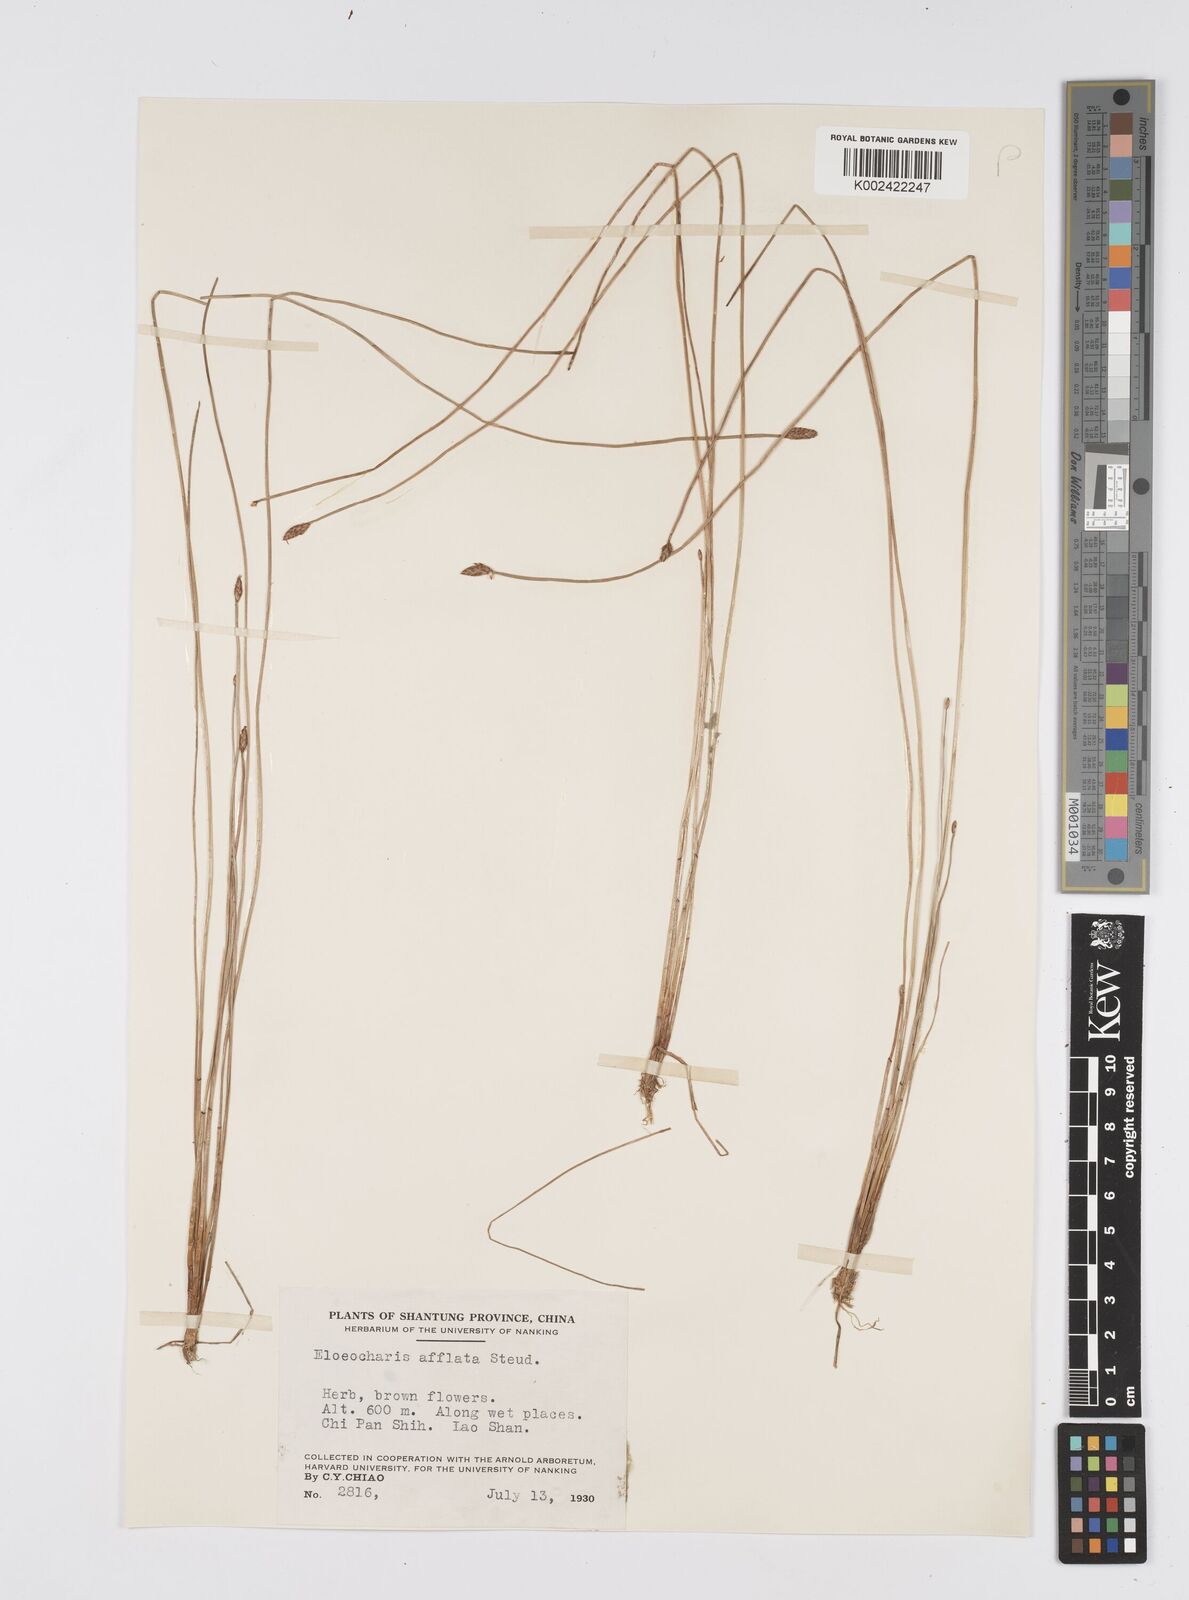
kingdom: Plantae
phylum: Tracheophyta
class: Liliopsida
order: Poales
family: Cyperaceae
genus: Eleocharis
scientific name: Eleocharis pellucida
